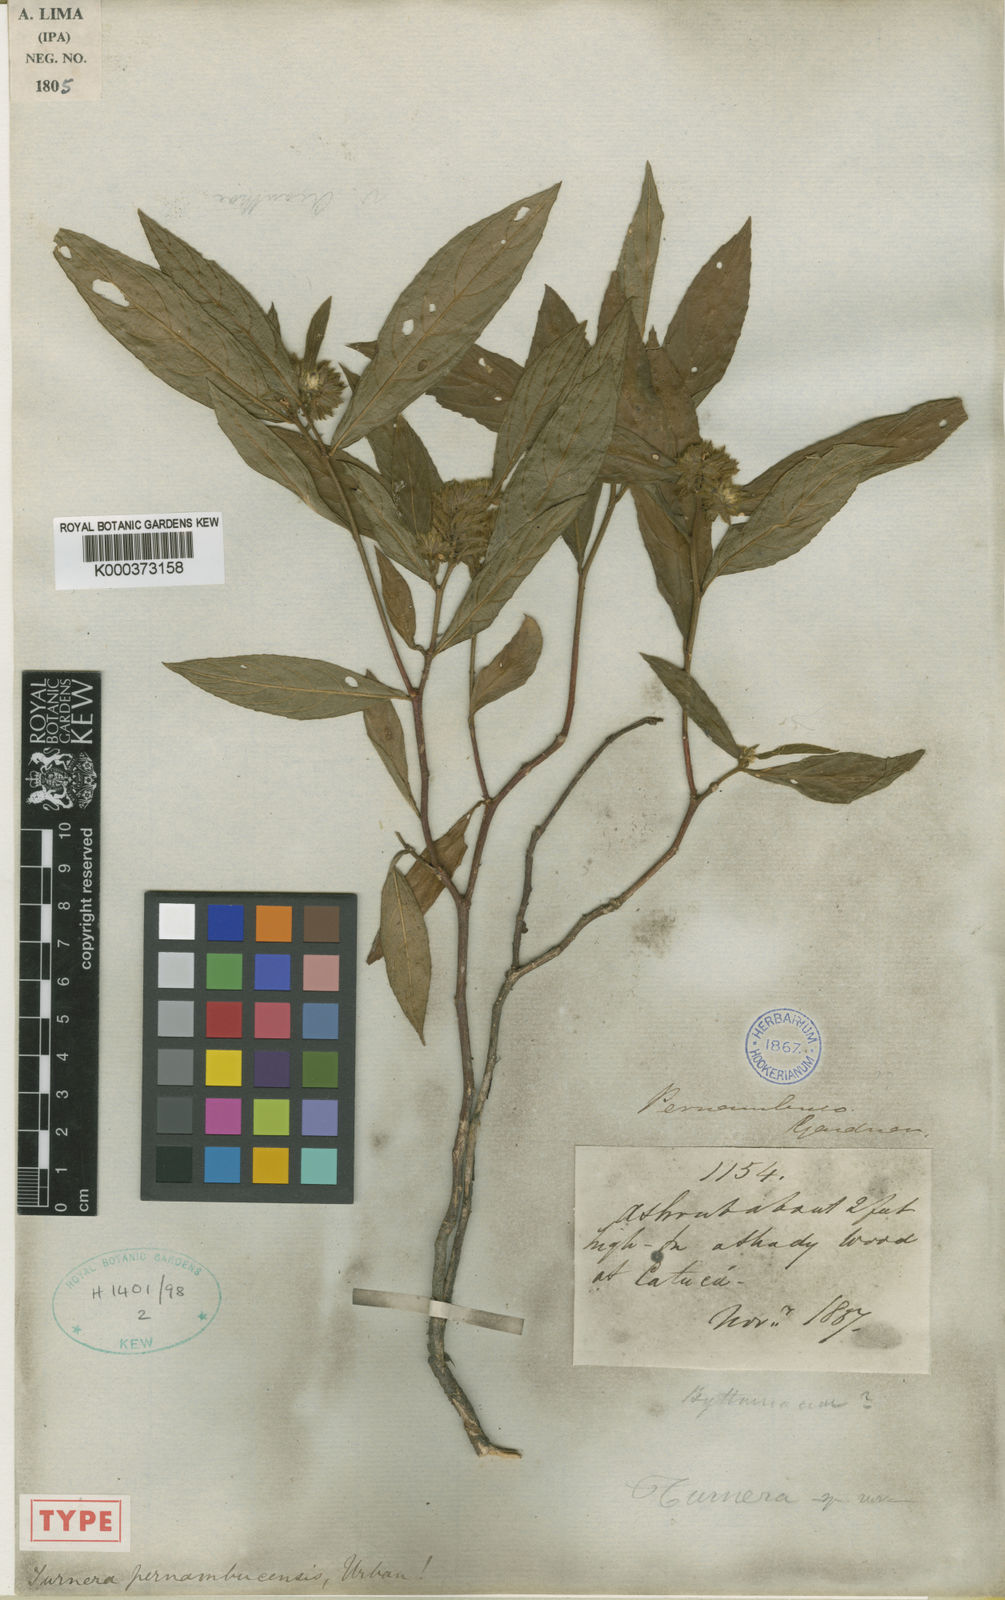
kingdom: Plantae
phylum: Tracheophyta
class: Magnoliopsida
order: Malpighiales
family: Turneraceae
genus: Oxossia
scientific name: Oxossia pernambucensis
